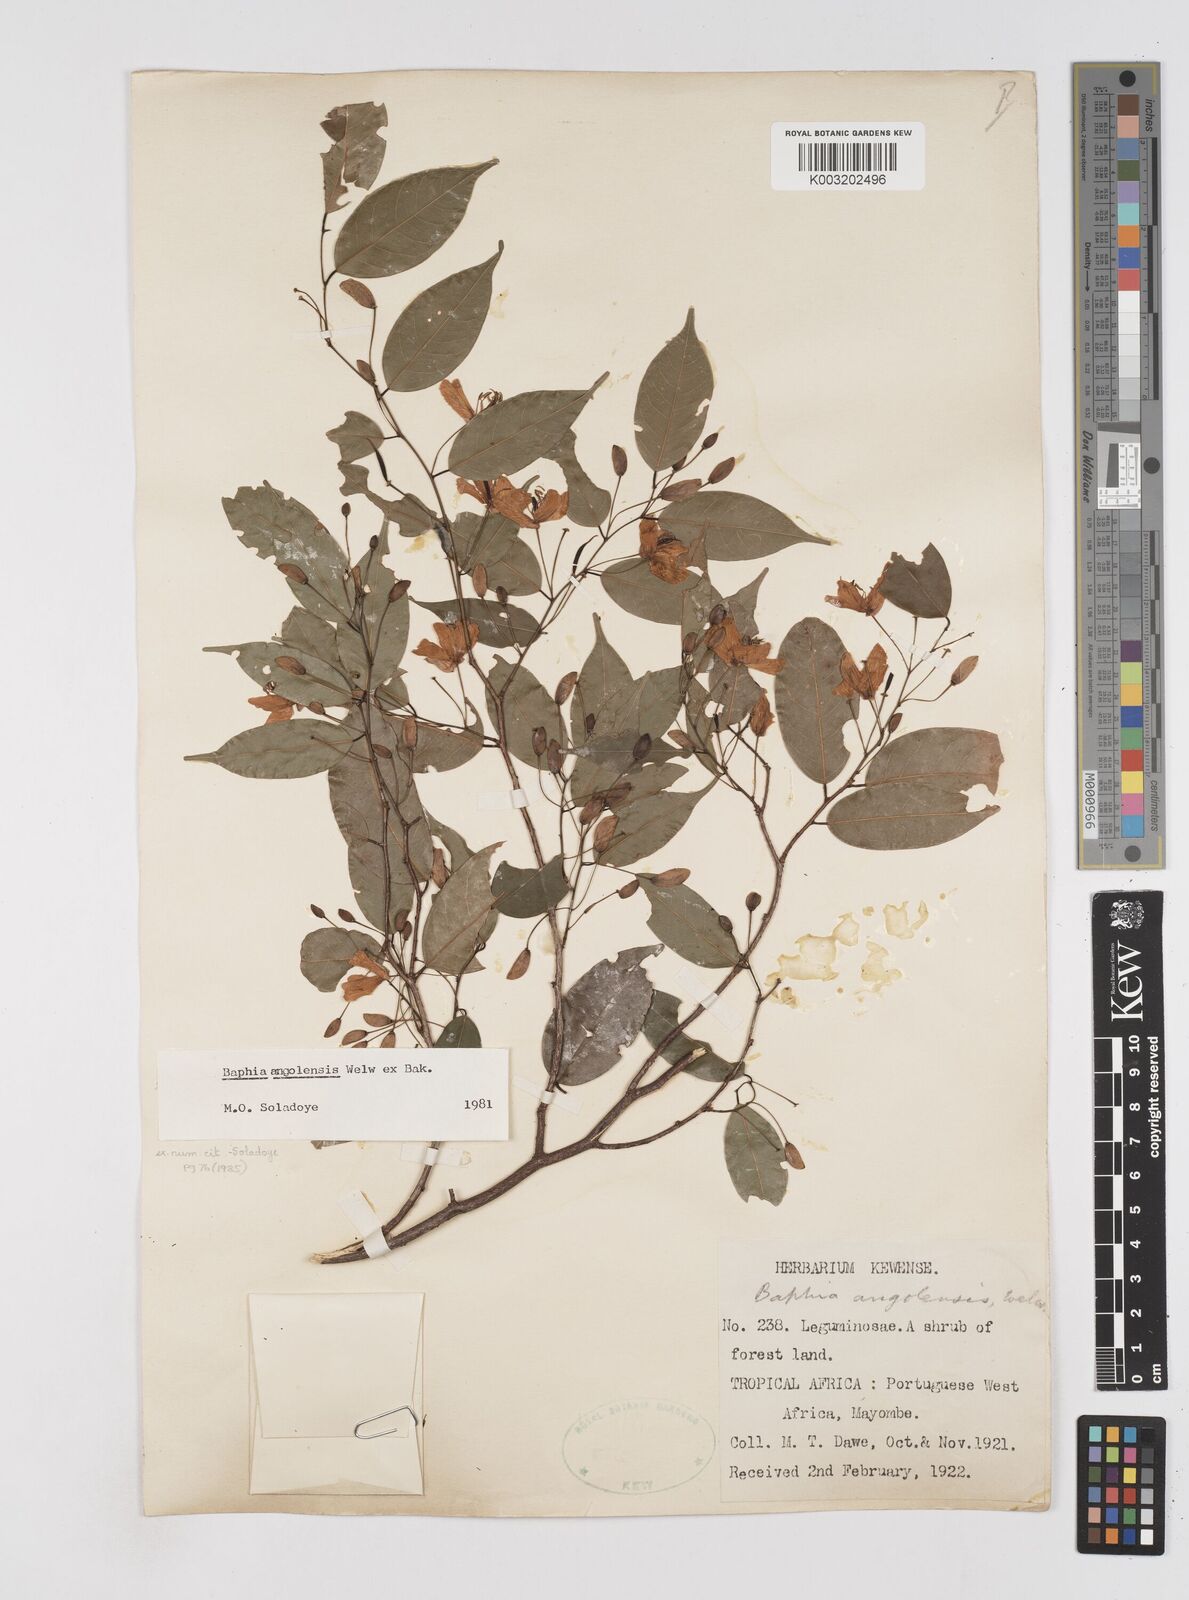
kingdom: Plantae
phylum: Tracheophyta
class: Magnoliopsida
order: Fabales
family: Fabaceae
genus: Baphia
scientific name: Baphia angolensis
